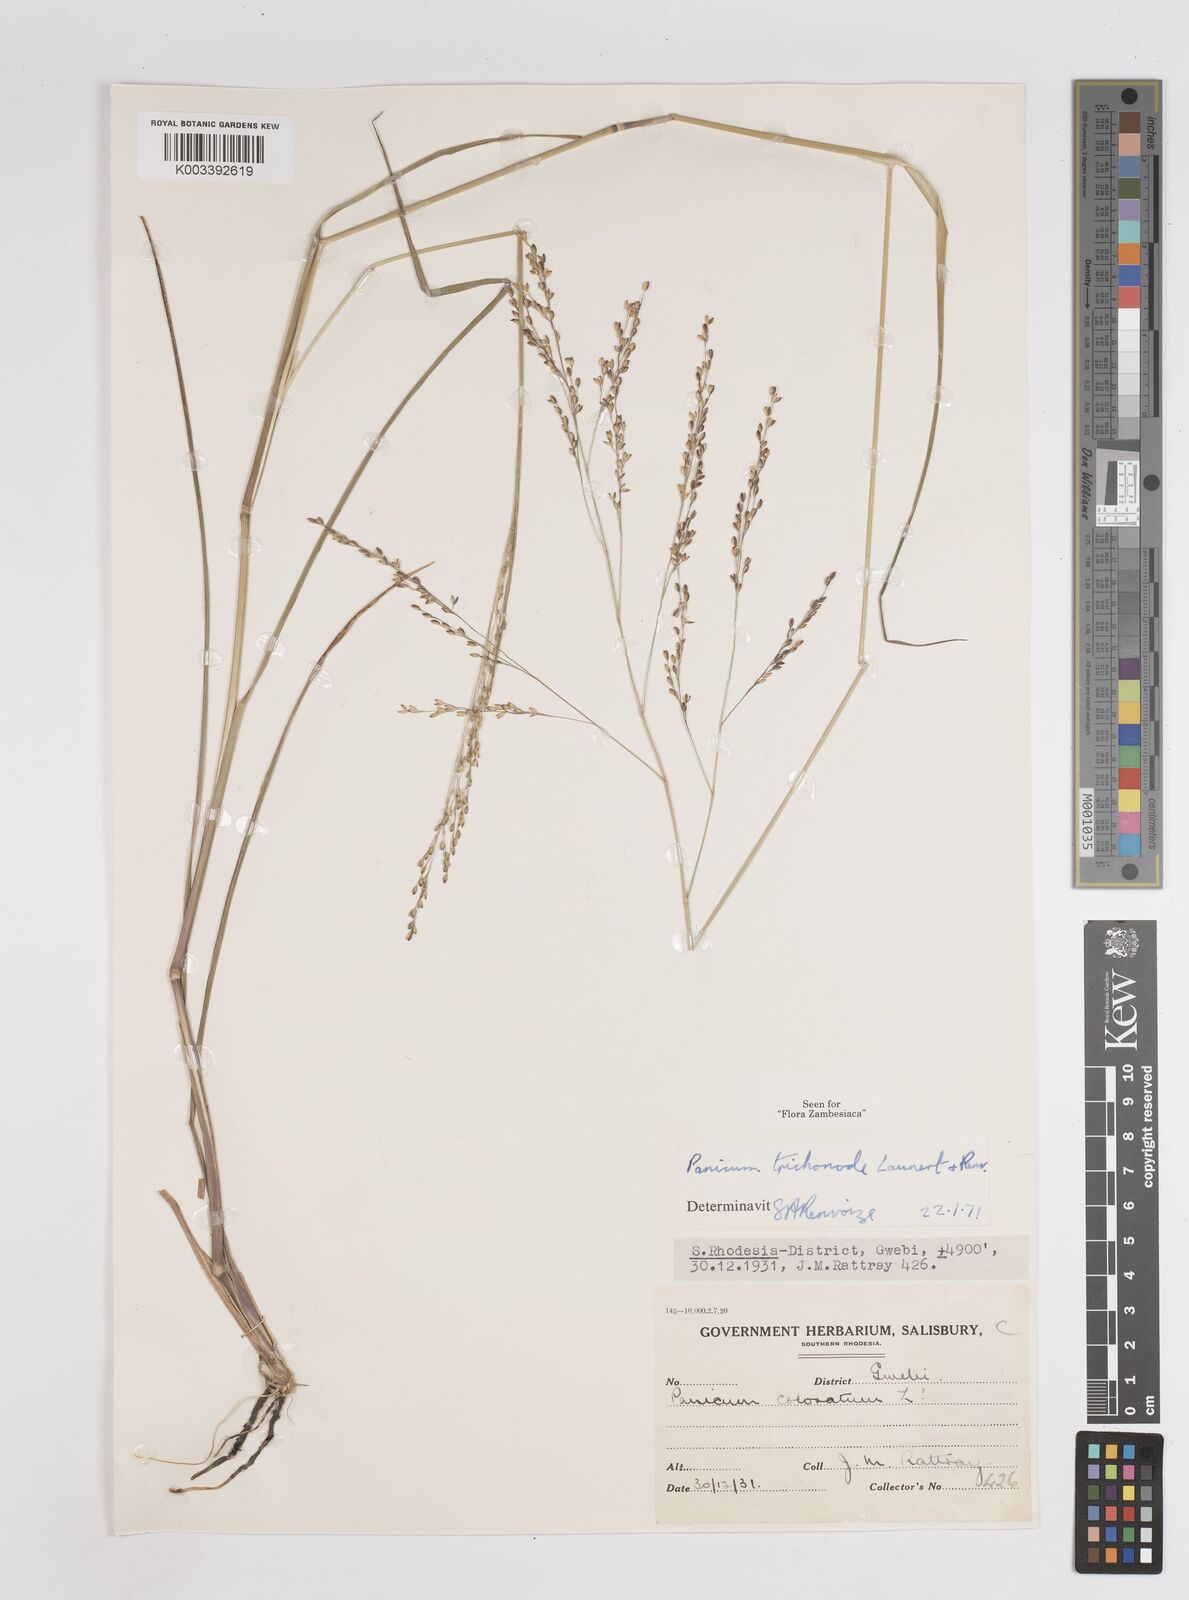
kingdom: Plantae
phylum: Tracheophyta
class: Liliopsida
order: Poales
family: Poaceae
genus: Panicum
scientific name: Panicum trichonode
